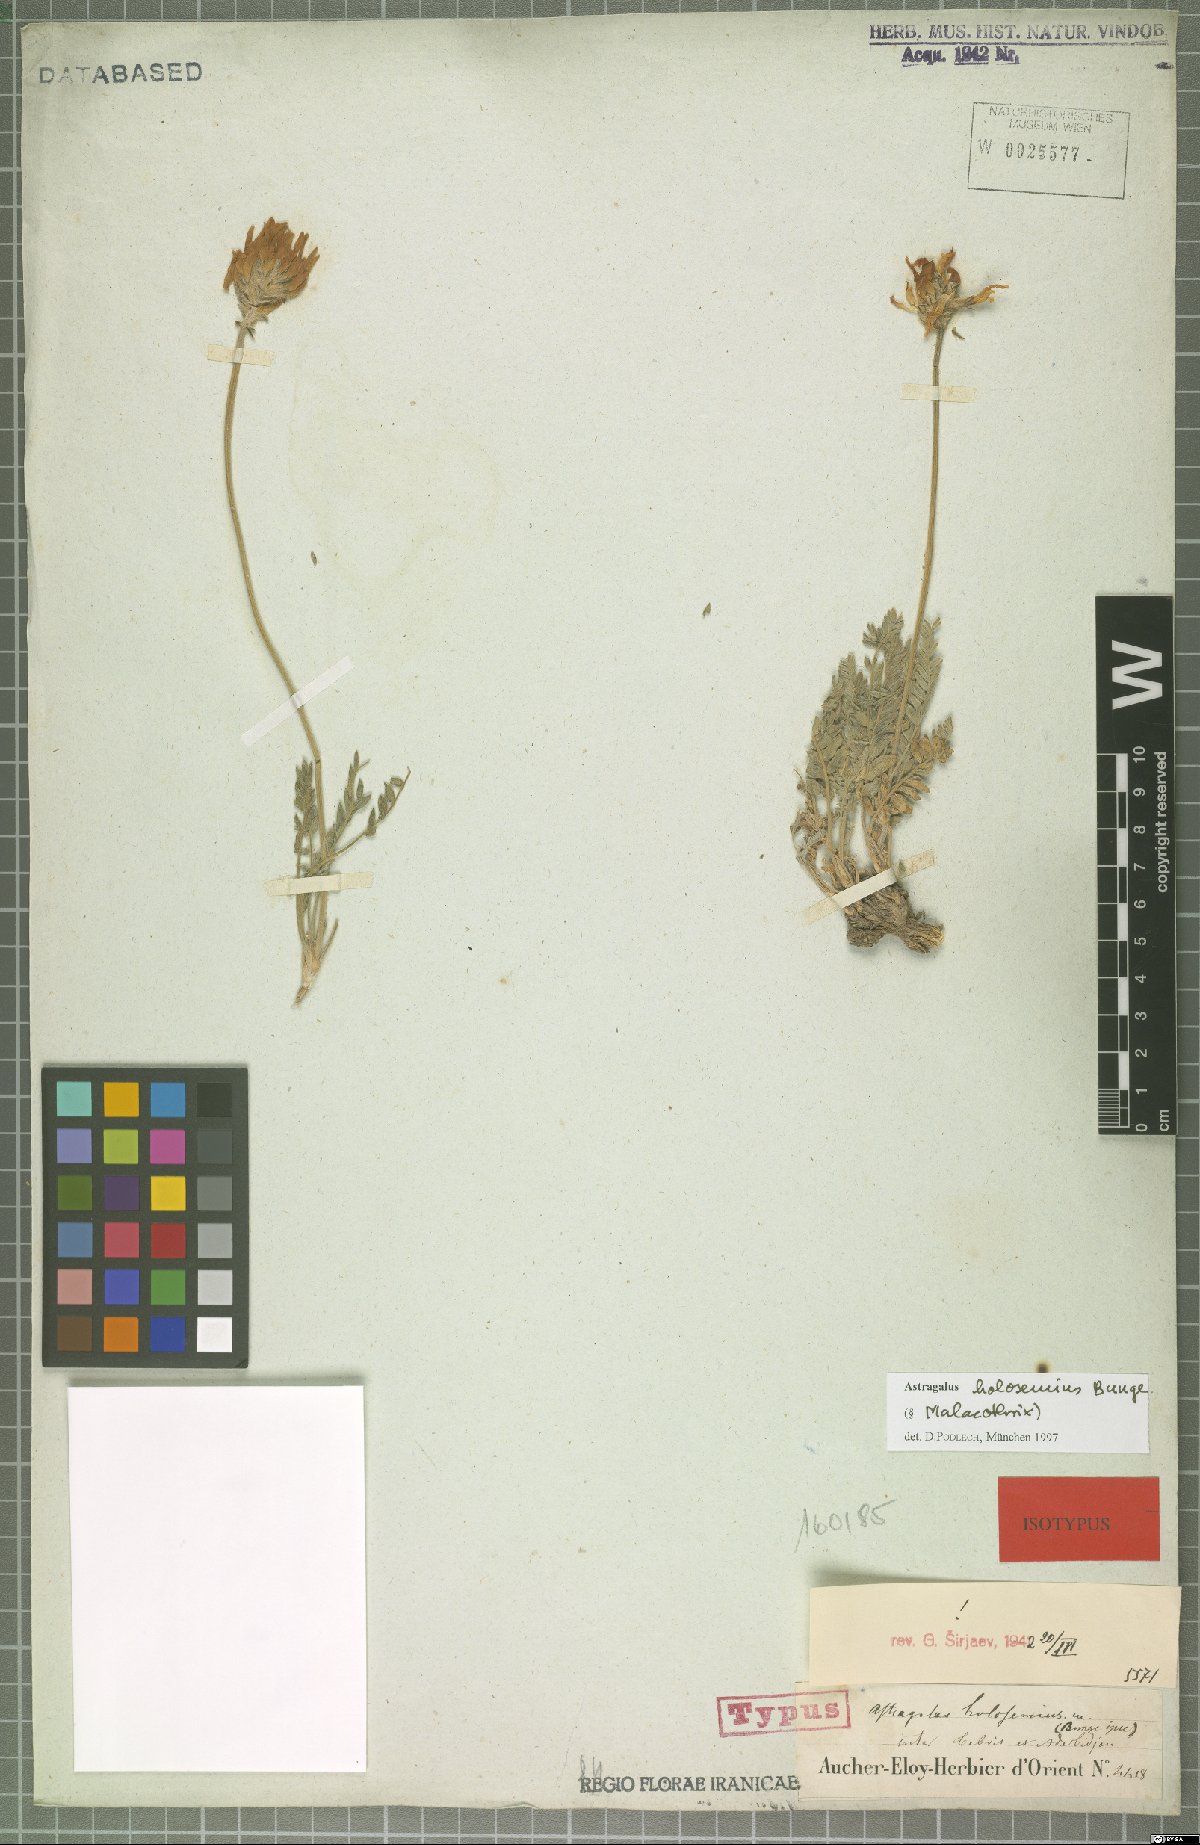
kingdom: Plantae
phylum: Tracheophyta
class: Magnoliopsida
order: Fabales
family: Fabaceae
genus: Astragalus
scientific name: Astragalus holosemius
